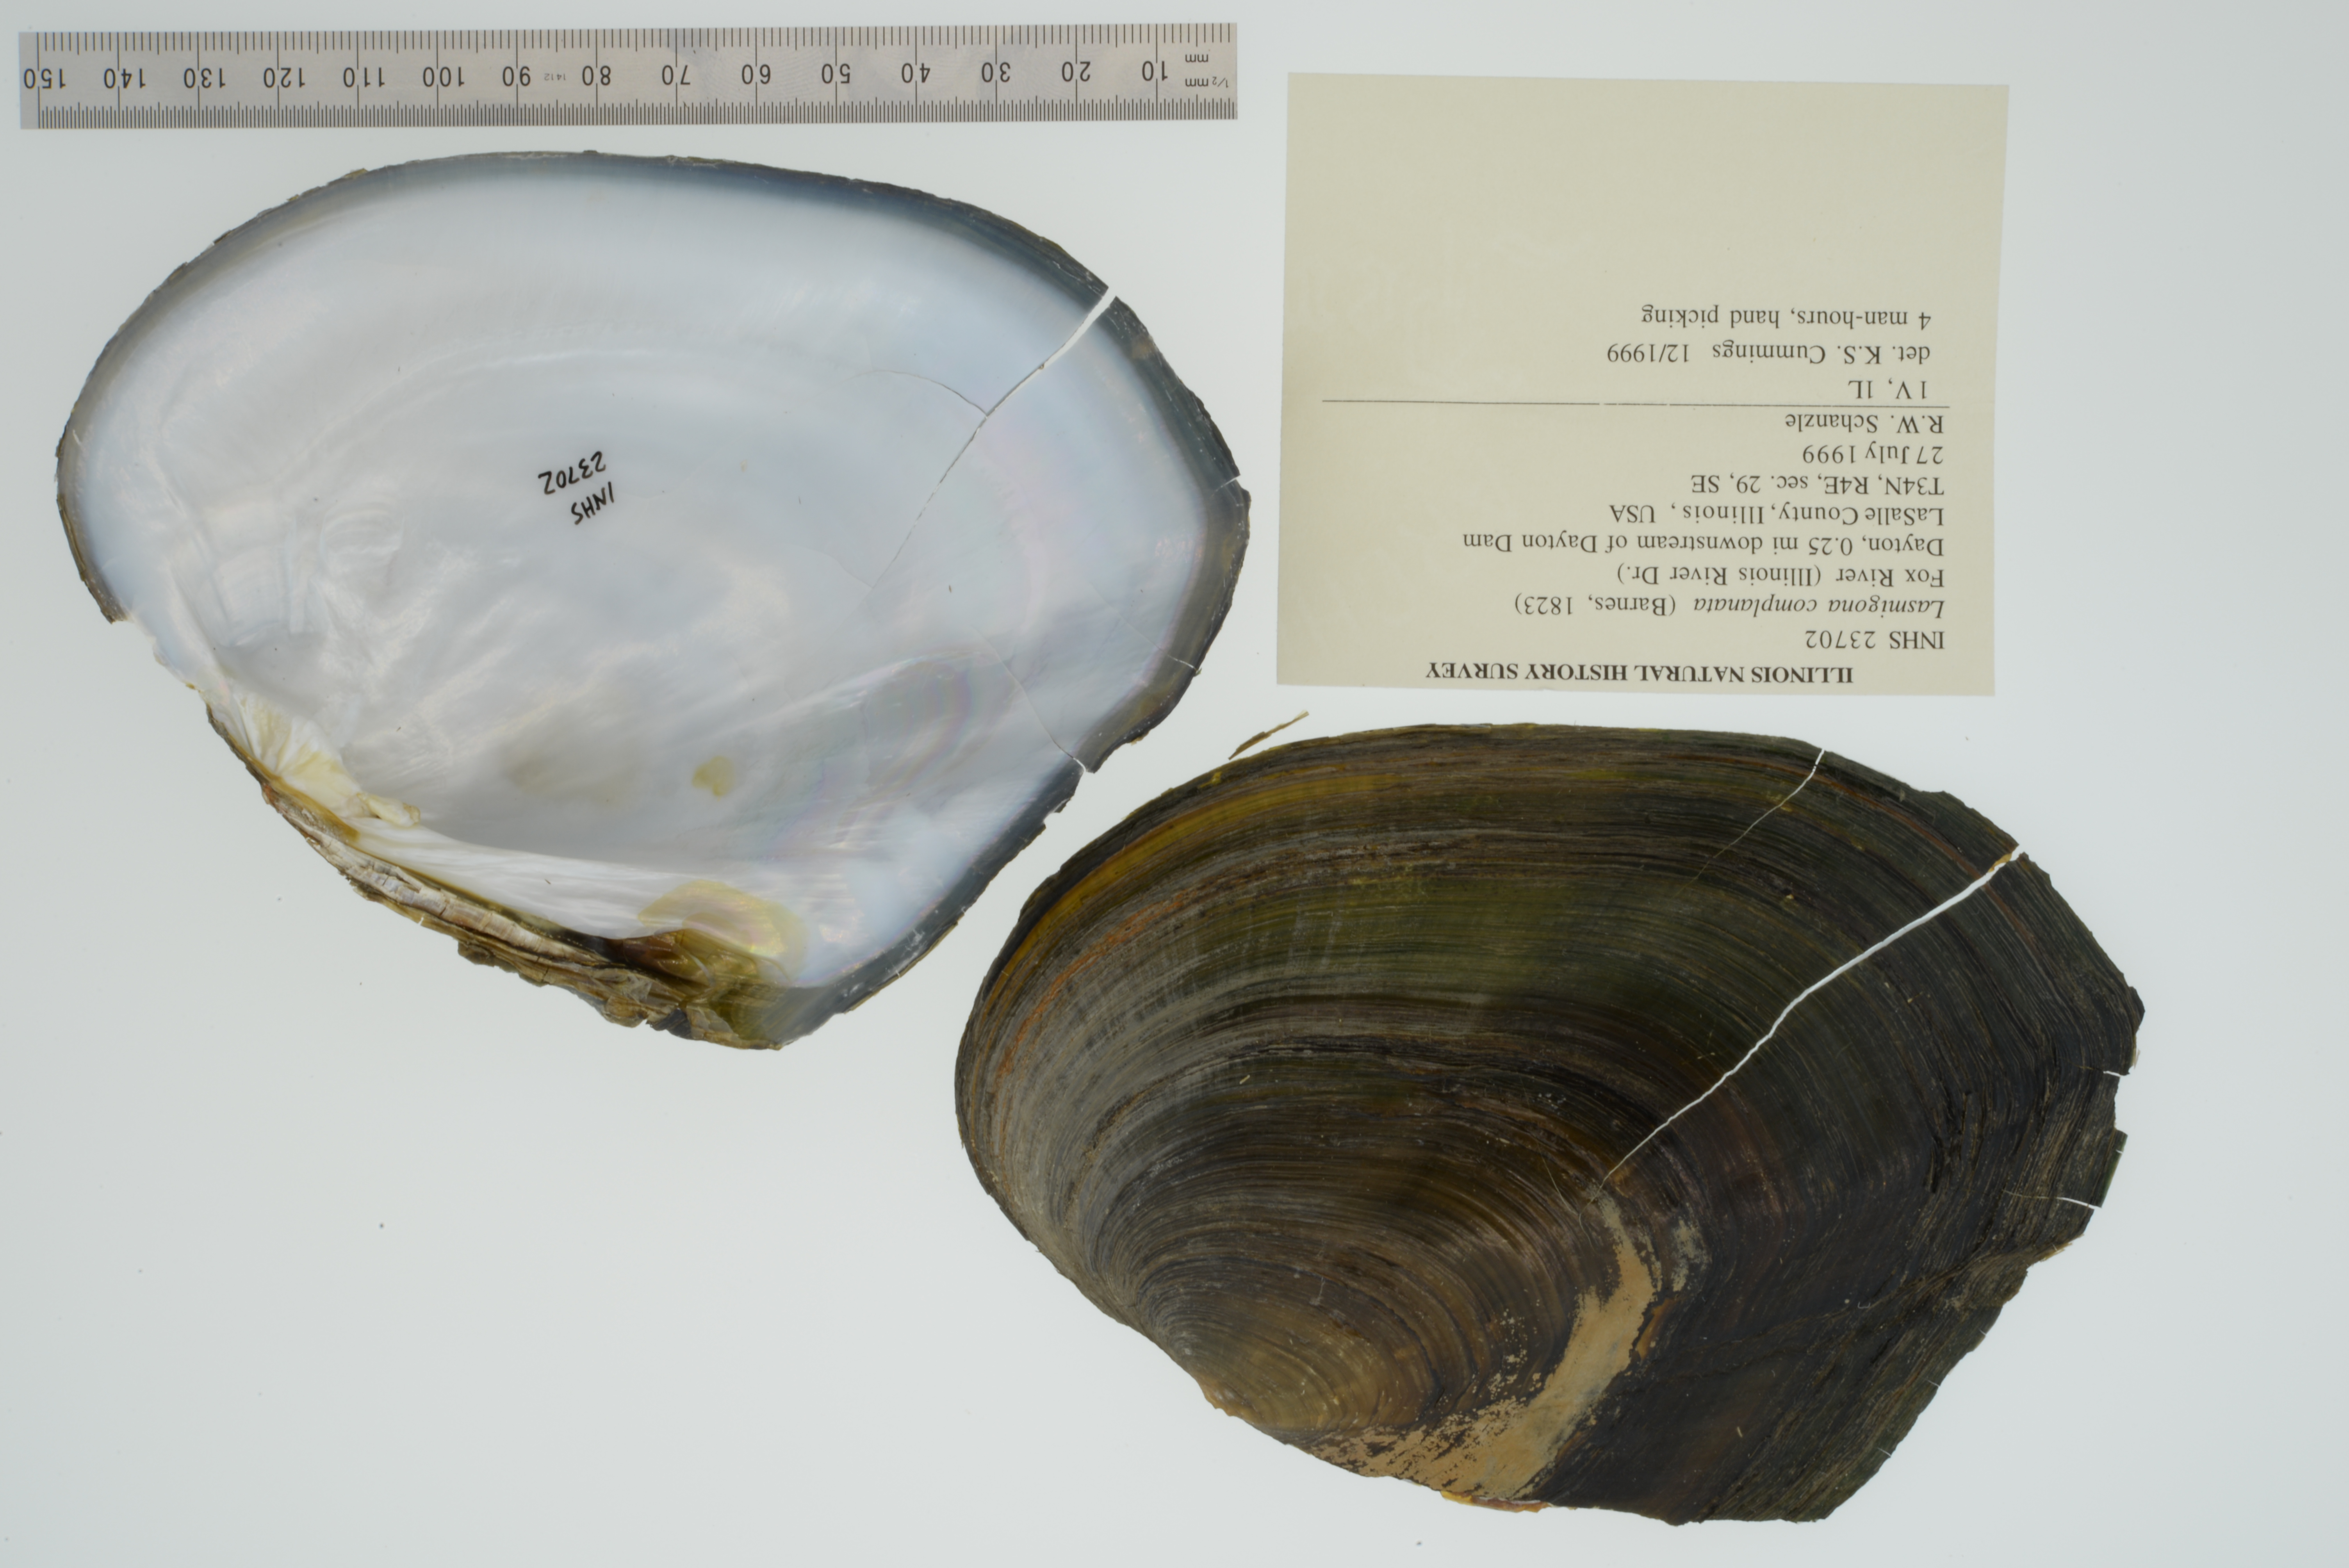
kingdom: Animalia
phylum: Mollusca
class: Bivalvia
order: Unionida
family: Unionidae
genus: Lasmigona
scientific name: Lasmigona complanata
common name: White heelsplitter
